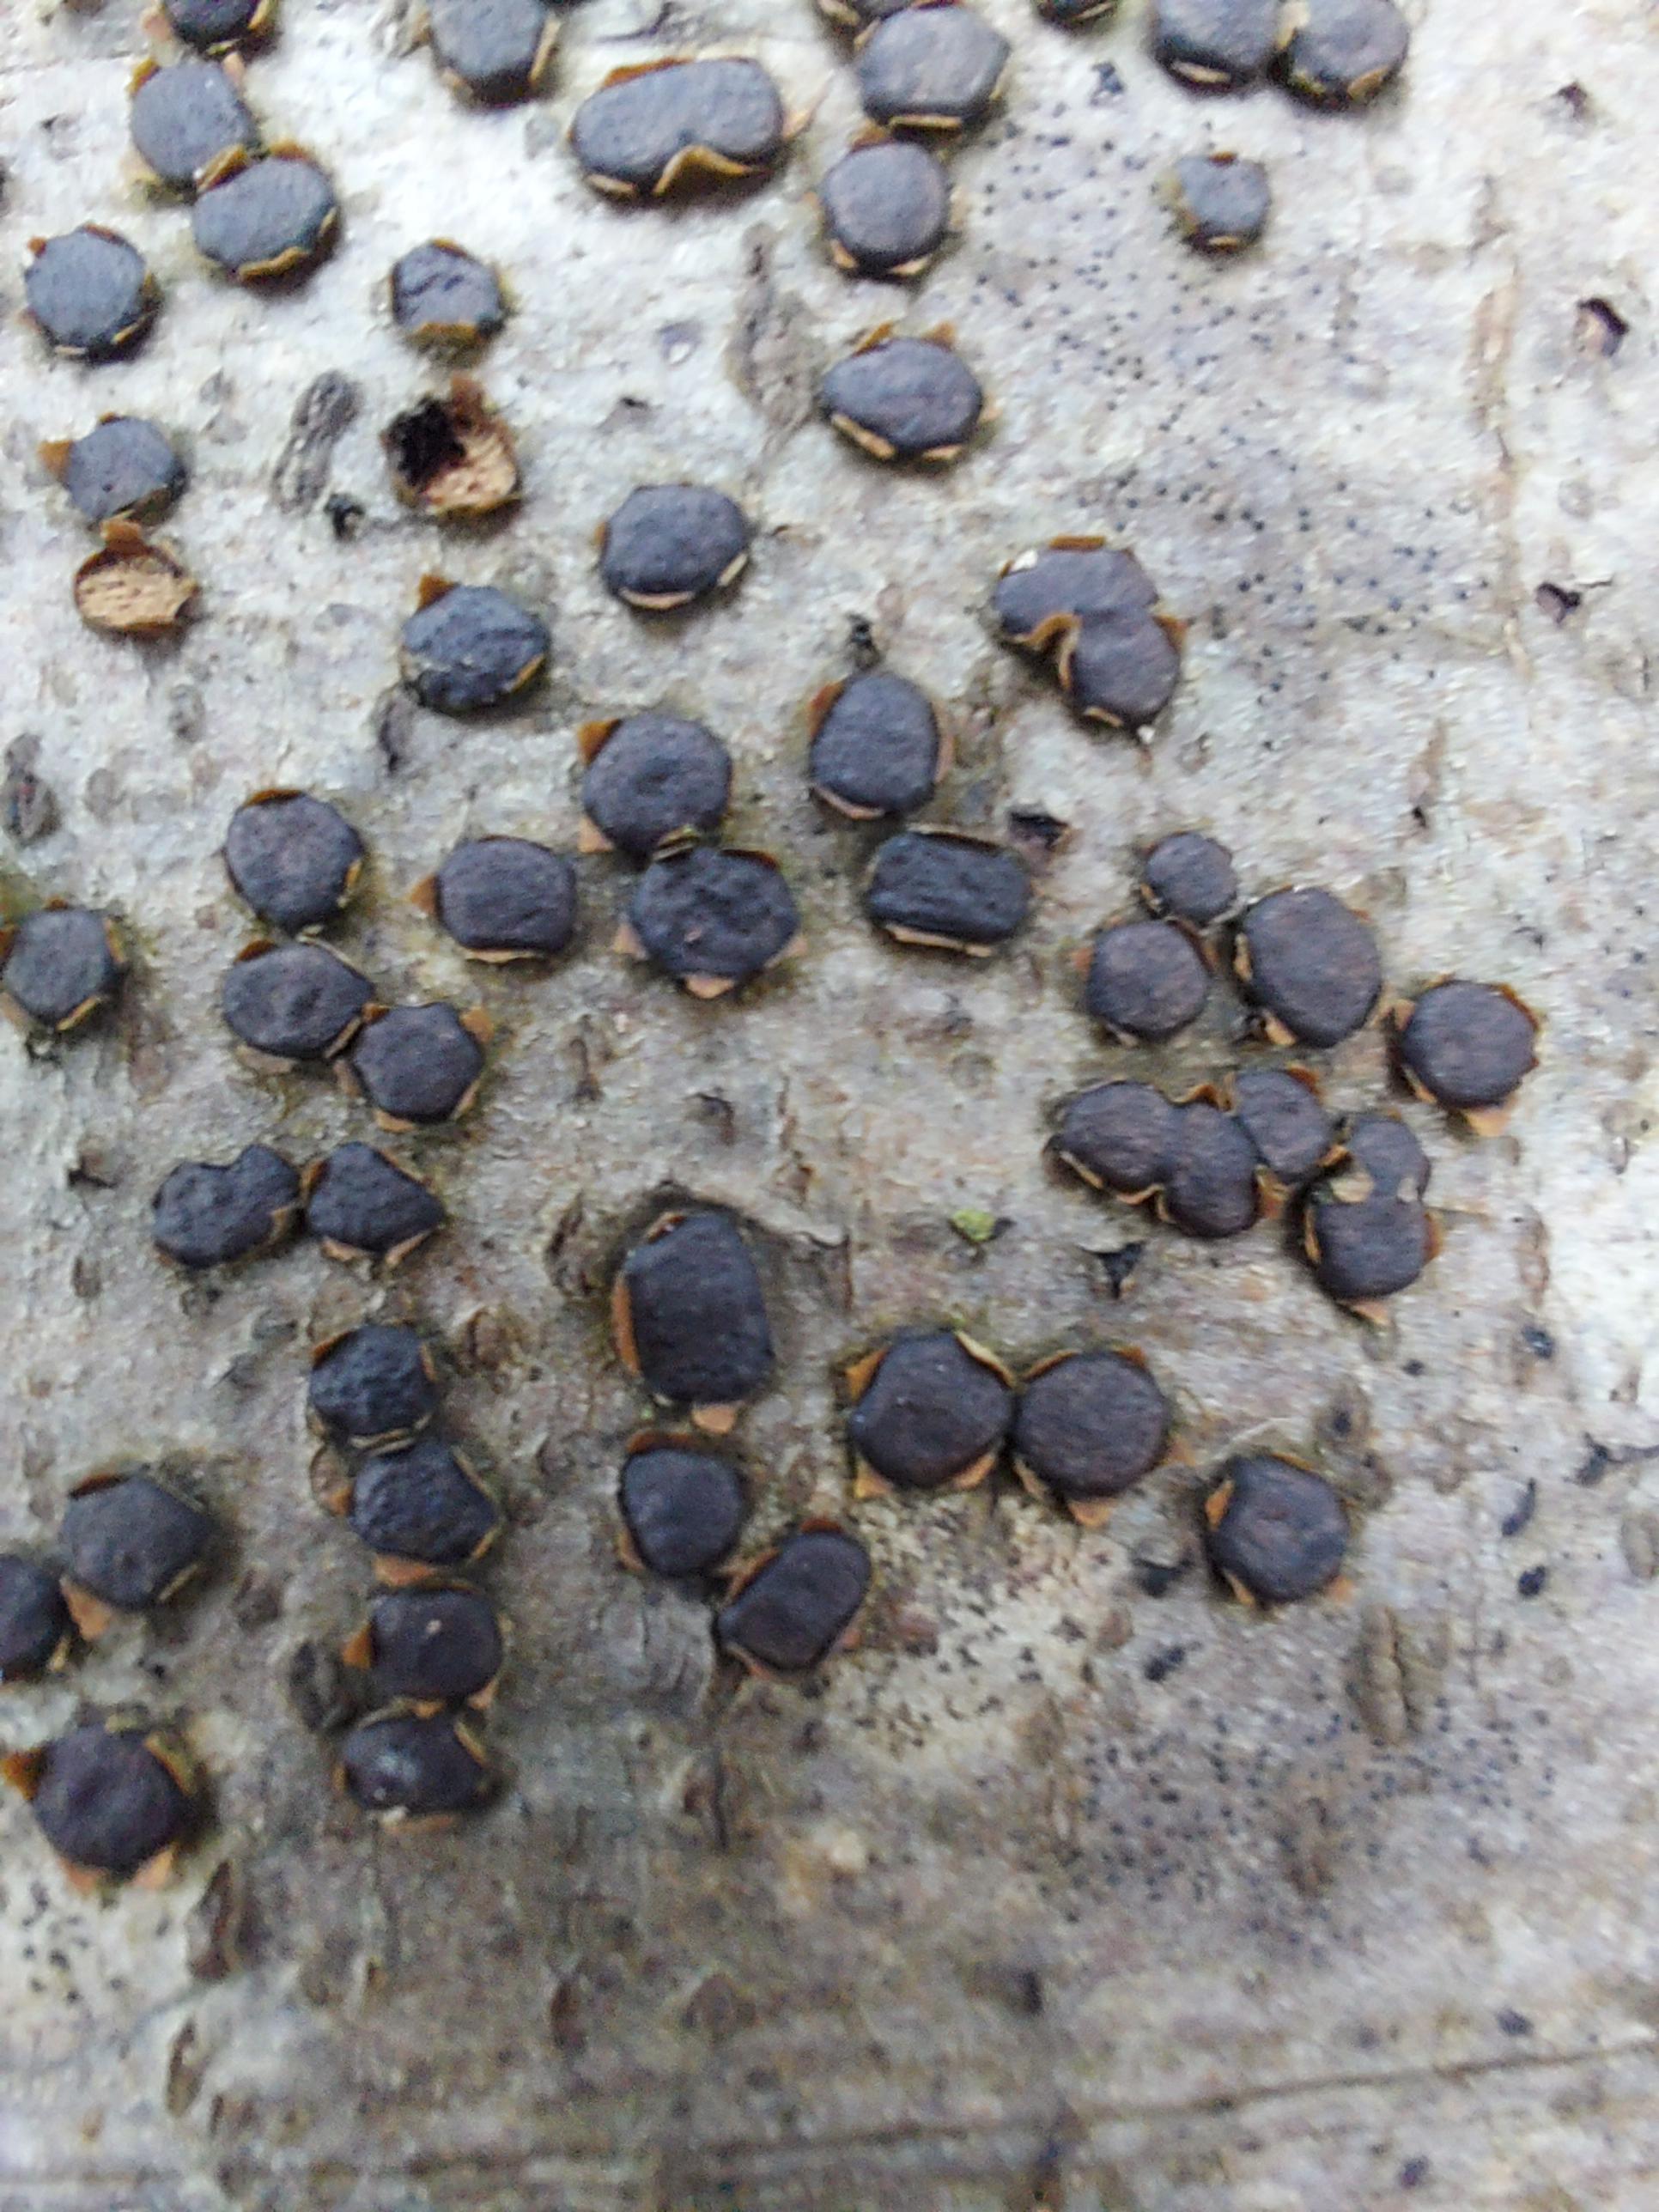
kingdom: Fungi
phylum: Ascomycota
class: Sordariomycetes
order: Xylariales
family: Diatrypaceae
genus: Diatrype
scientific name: Diatrype disciformis
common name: kant-kulskorpe
